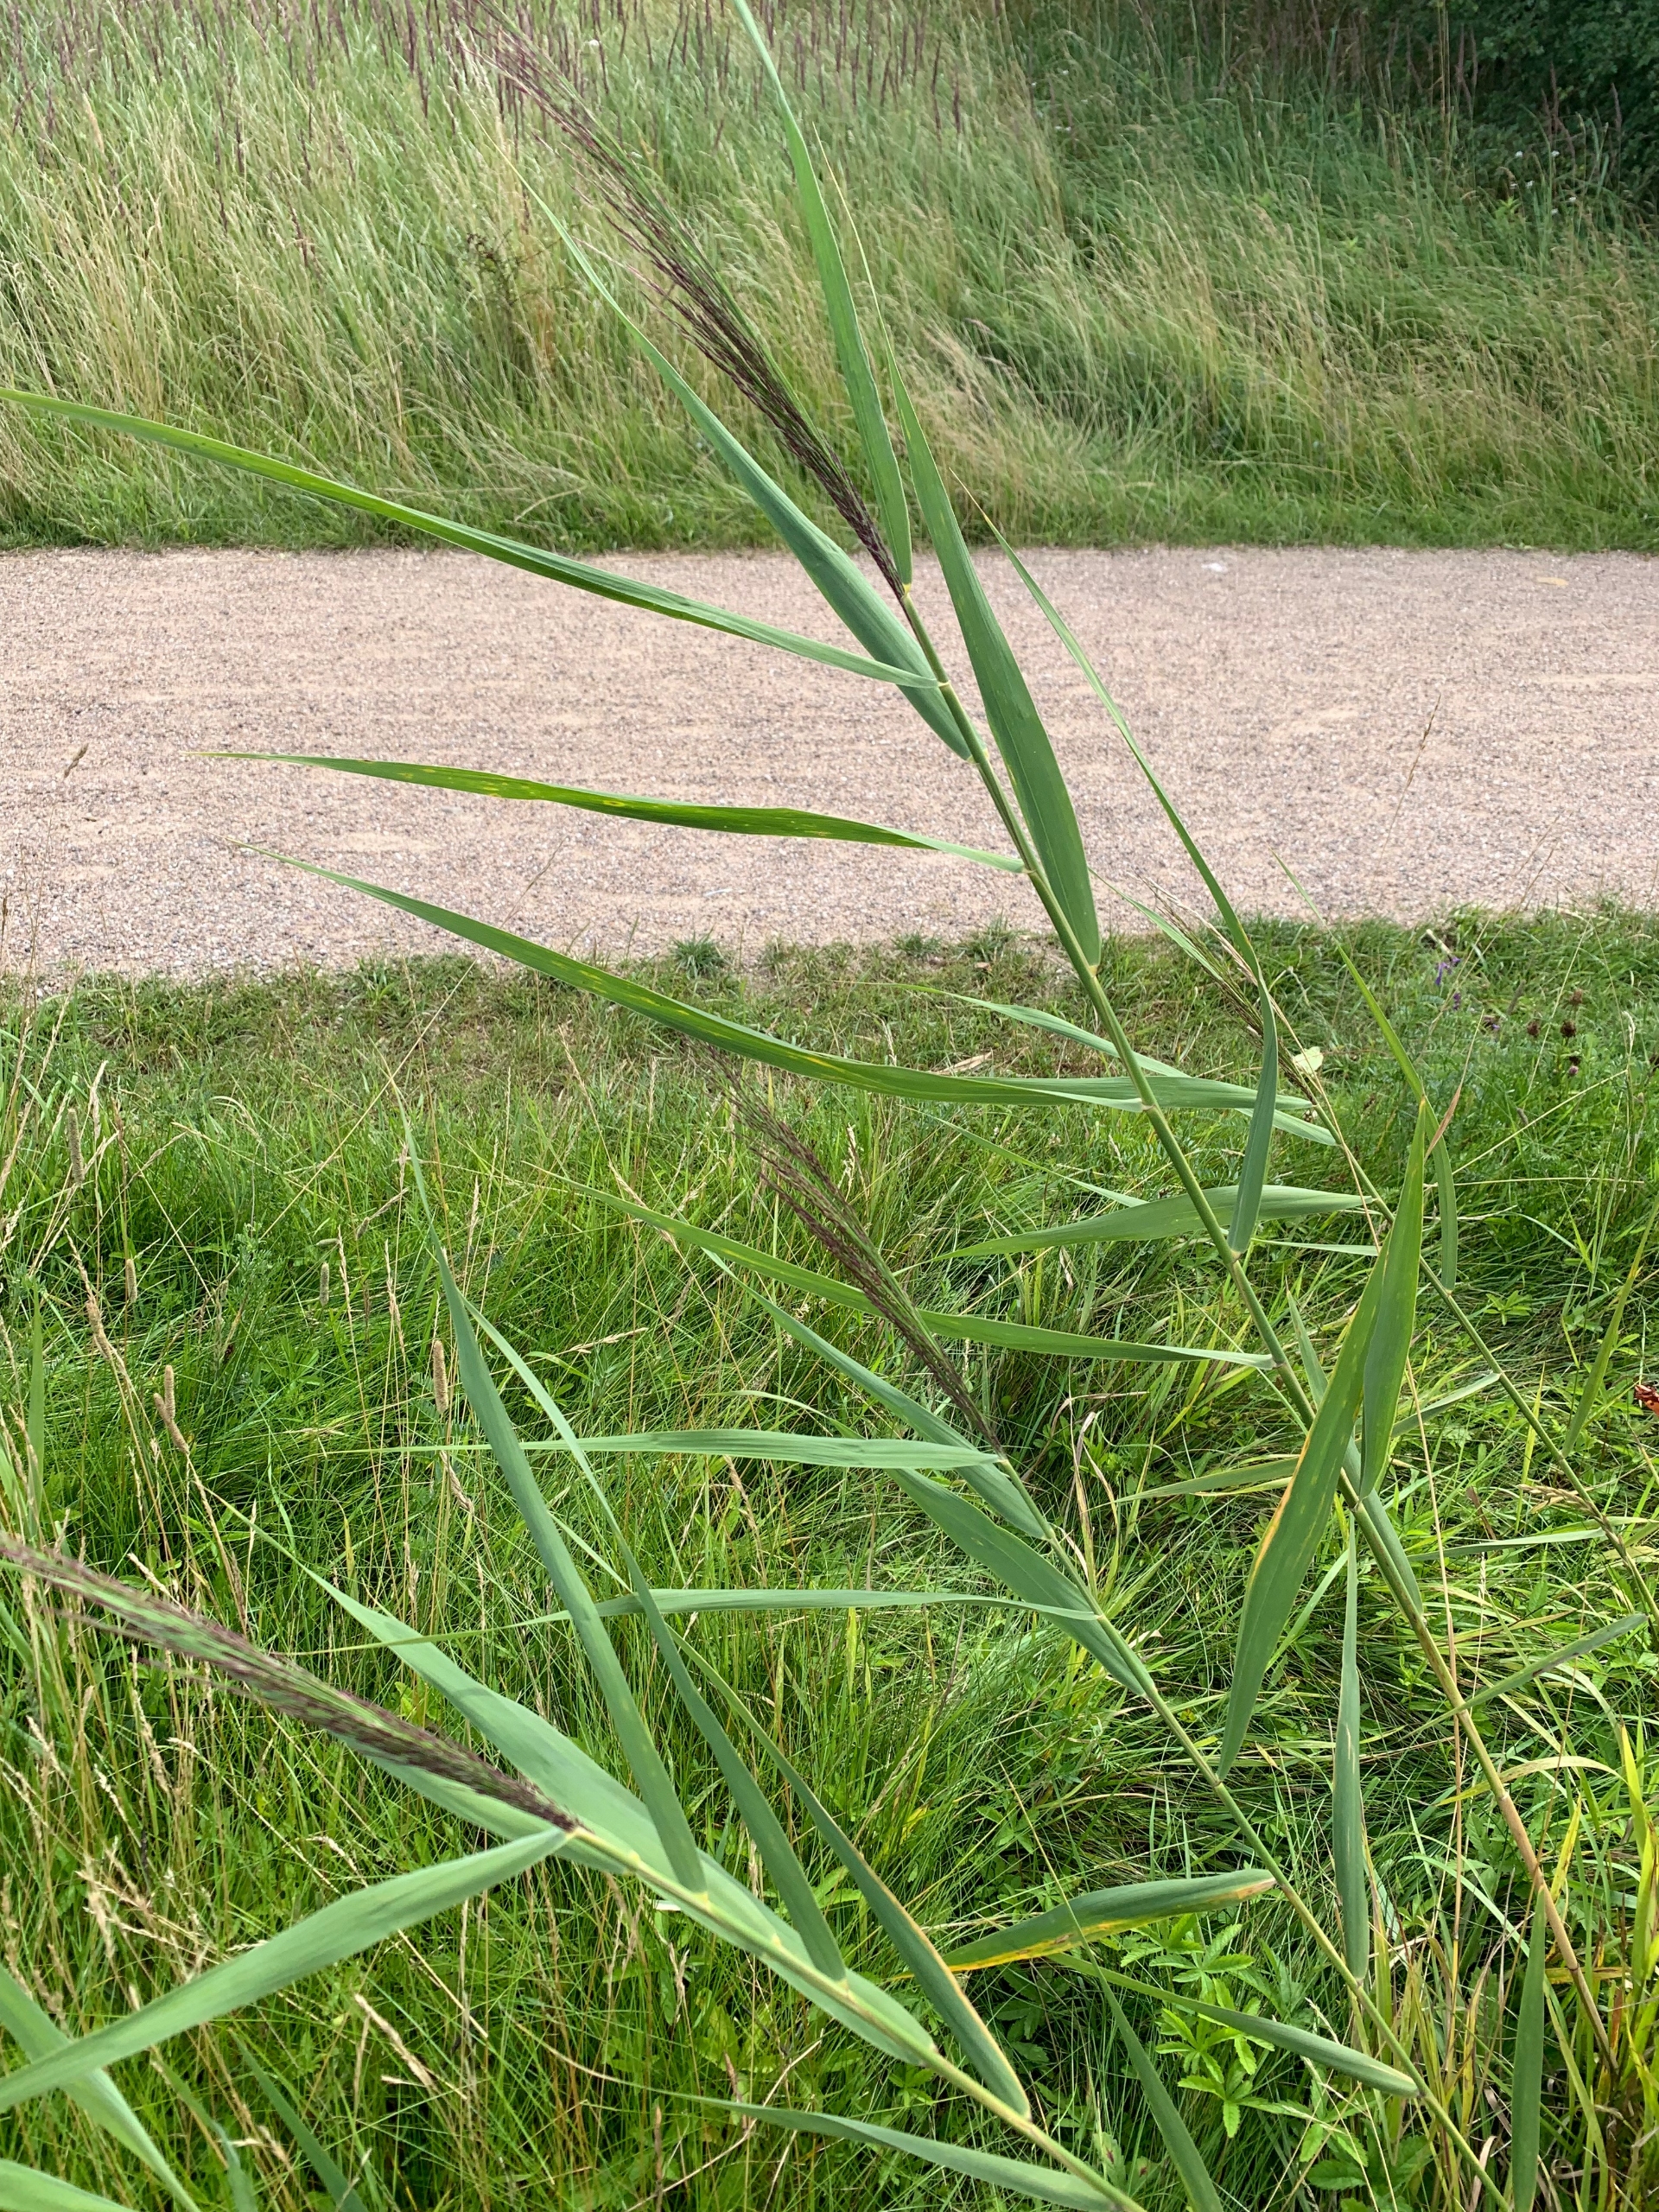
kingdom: Plantae
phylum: Tracheophyta
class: Liliopsida
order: Poales
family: Poaceae
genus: Phragmites
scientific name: Phragmites australis
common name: Tagrør
